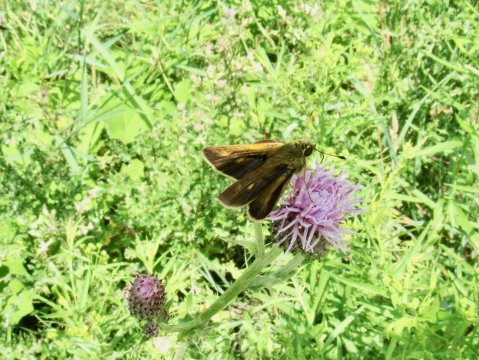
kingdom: Animalia
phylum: Arthropoda
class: Insecta
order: Lepidoptera
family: Hesperiidae
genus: Polites
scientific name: Polites egeremet
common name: Northern Broken-Dash
